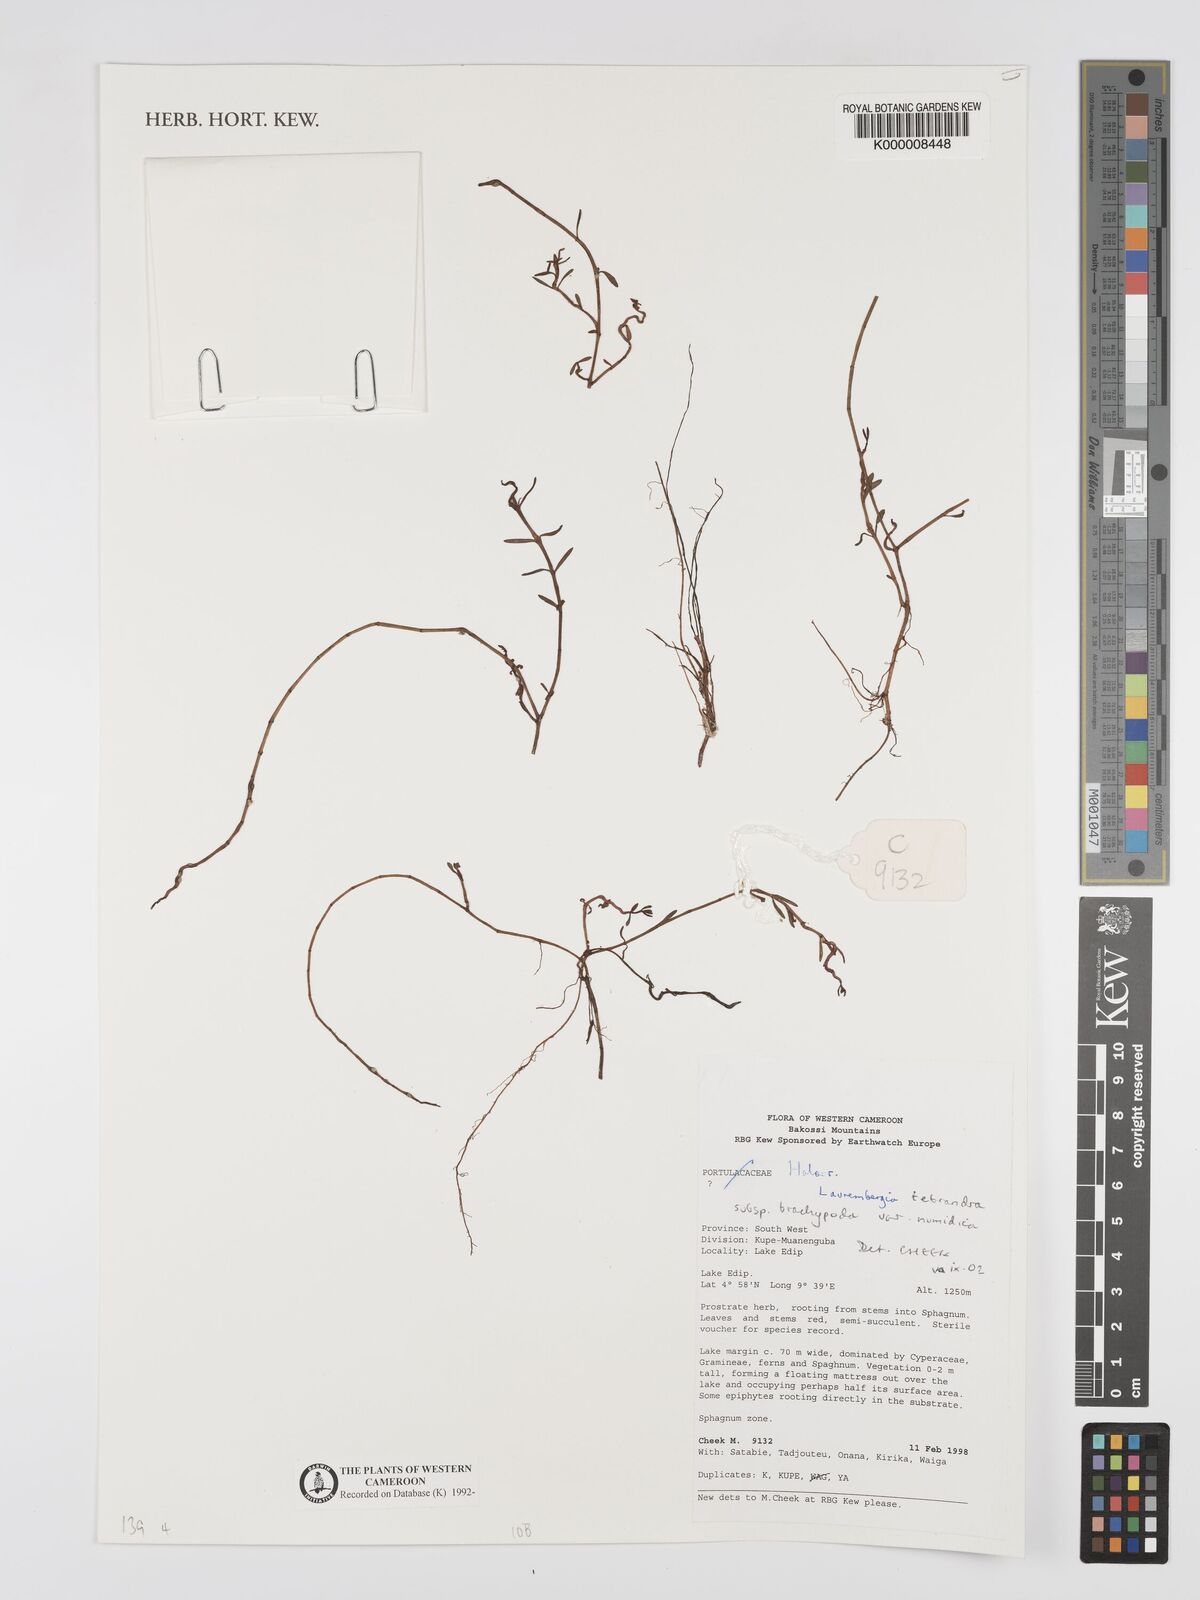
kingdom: Plantae
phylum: Tracheophyta
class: Magnoliopsida
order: Saxifragales
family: Haloragaceae
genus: Laurembergia
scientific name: Laurembergia tetrandra
